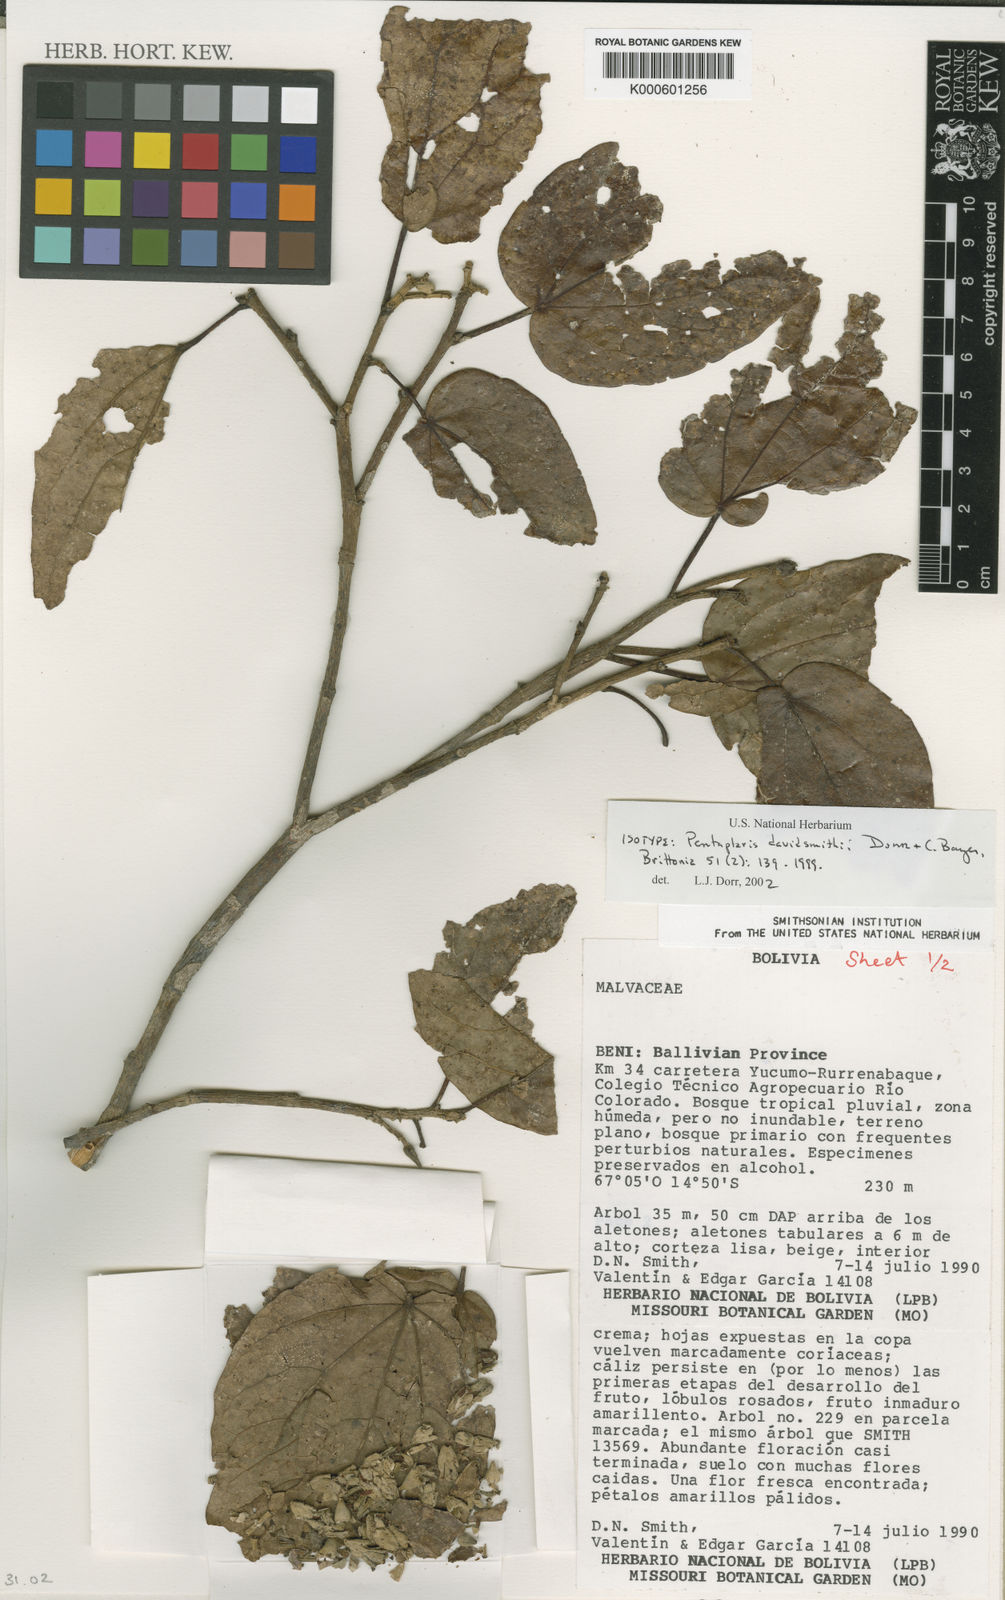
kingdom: Plantae
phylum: Tracheophyta
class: Magnoliopsida
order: Malvales
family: Malvaceae
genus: Pentaplaris
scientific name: Pentaplaris davidsmithii
